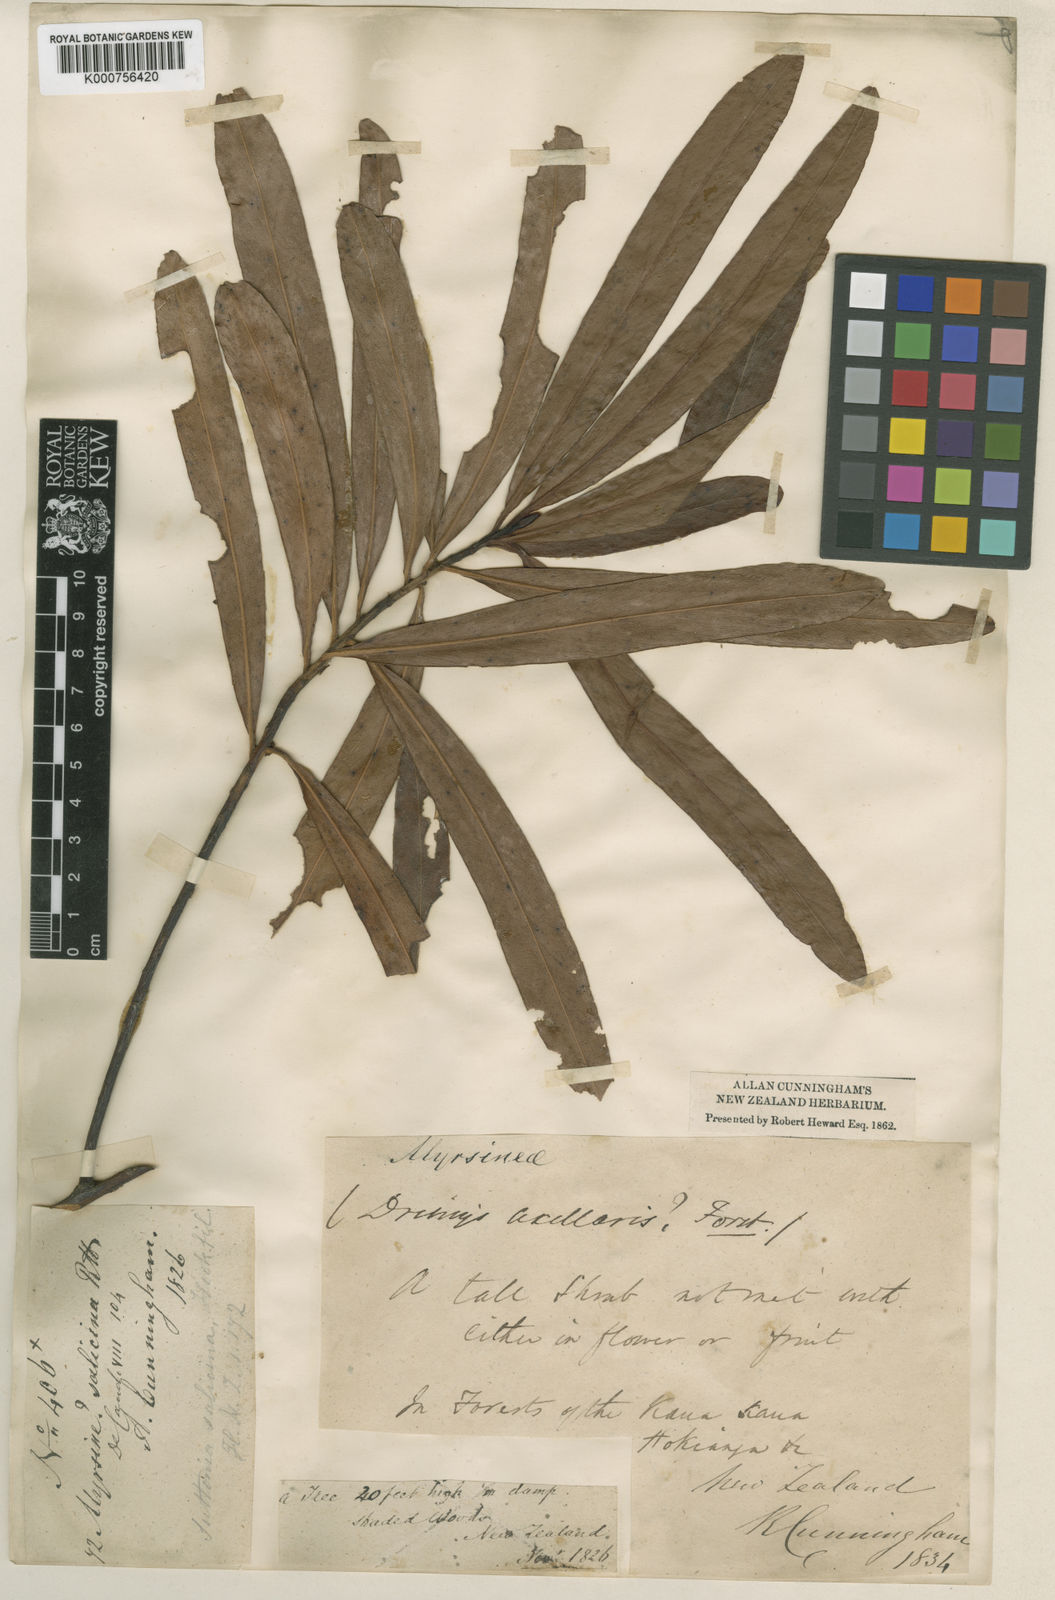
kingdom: Plantae
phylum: Tracheophyta
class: Magnoliopsida
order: Ericales
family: Primulaceae
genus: Myrsine
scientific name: Myrsine salicina
